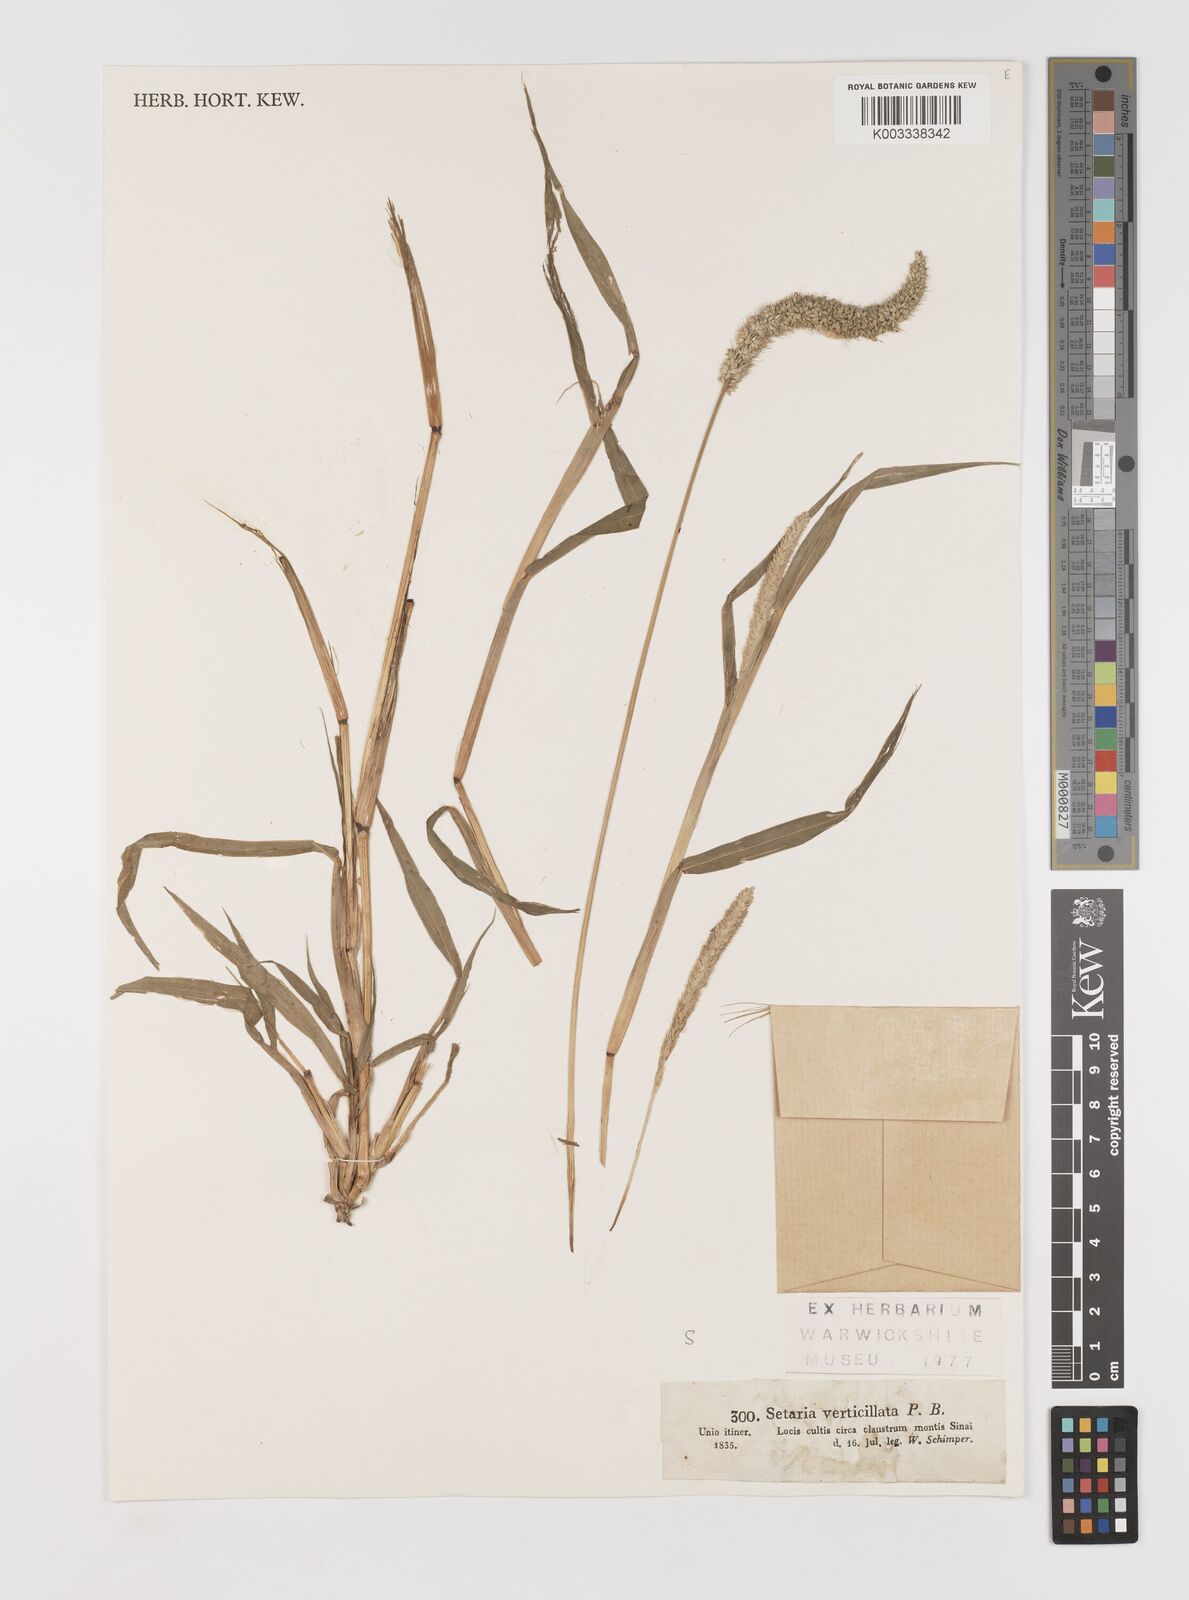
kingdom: Plantae
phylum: Tracheophyta
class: Liliopsida
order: Poales
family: Poaceae
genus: Setaria
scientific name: Setaria verticillata
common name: Hooked bristlegrass
